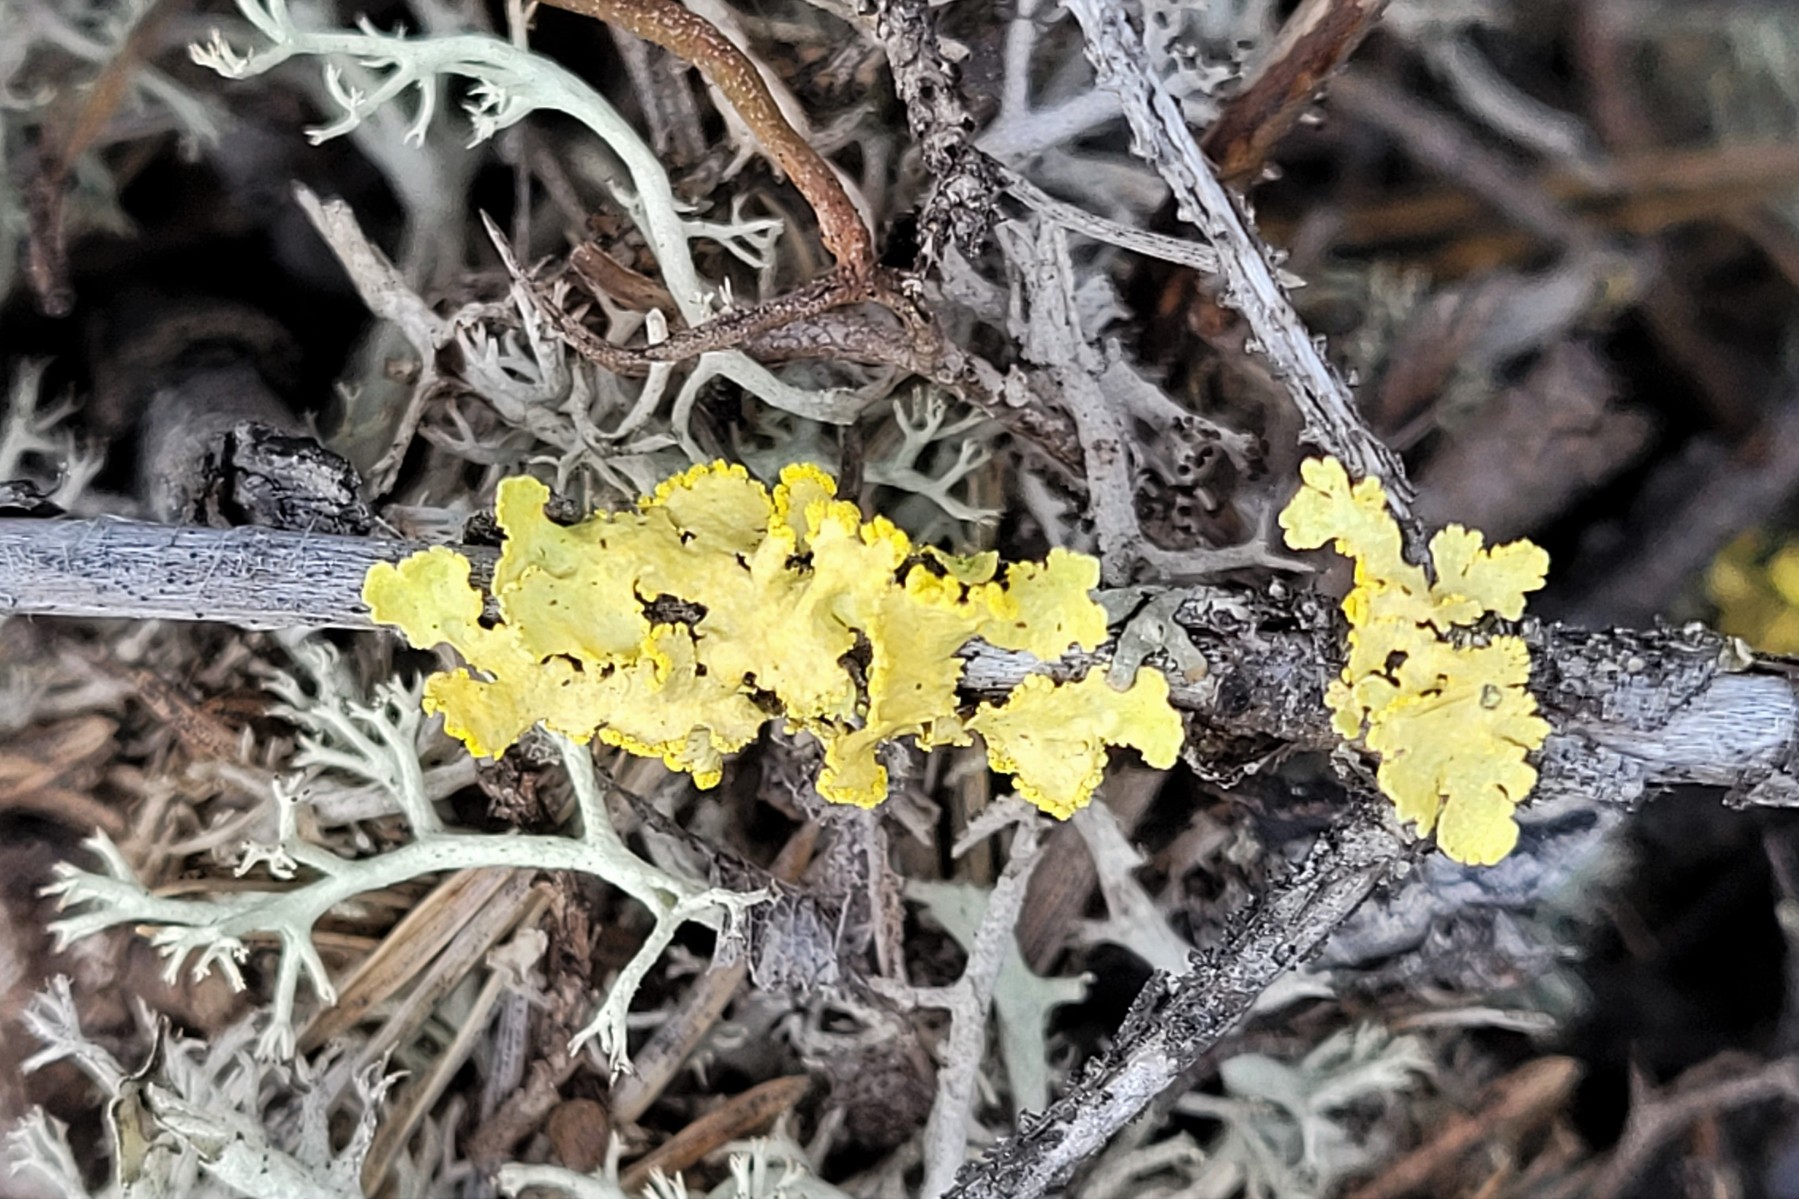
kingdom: Fungi
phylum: Ascomycota
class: Lecanoromycetes
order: Lecanorales
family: Parmeliaceae
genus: Vulpicida
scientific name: Vulpicida pinastri
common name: gul kruslav
